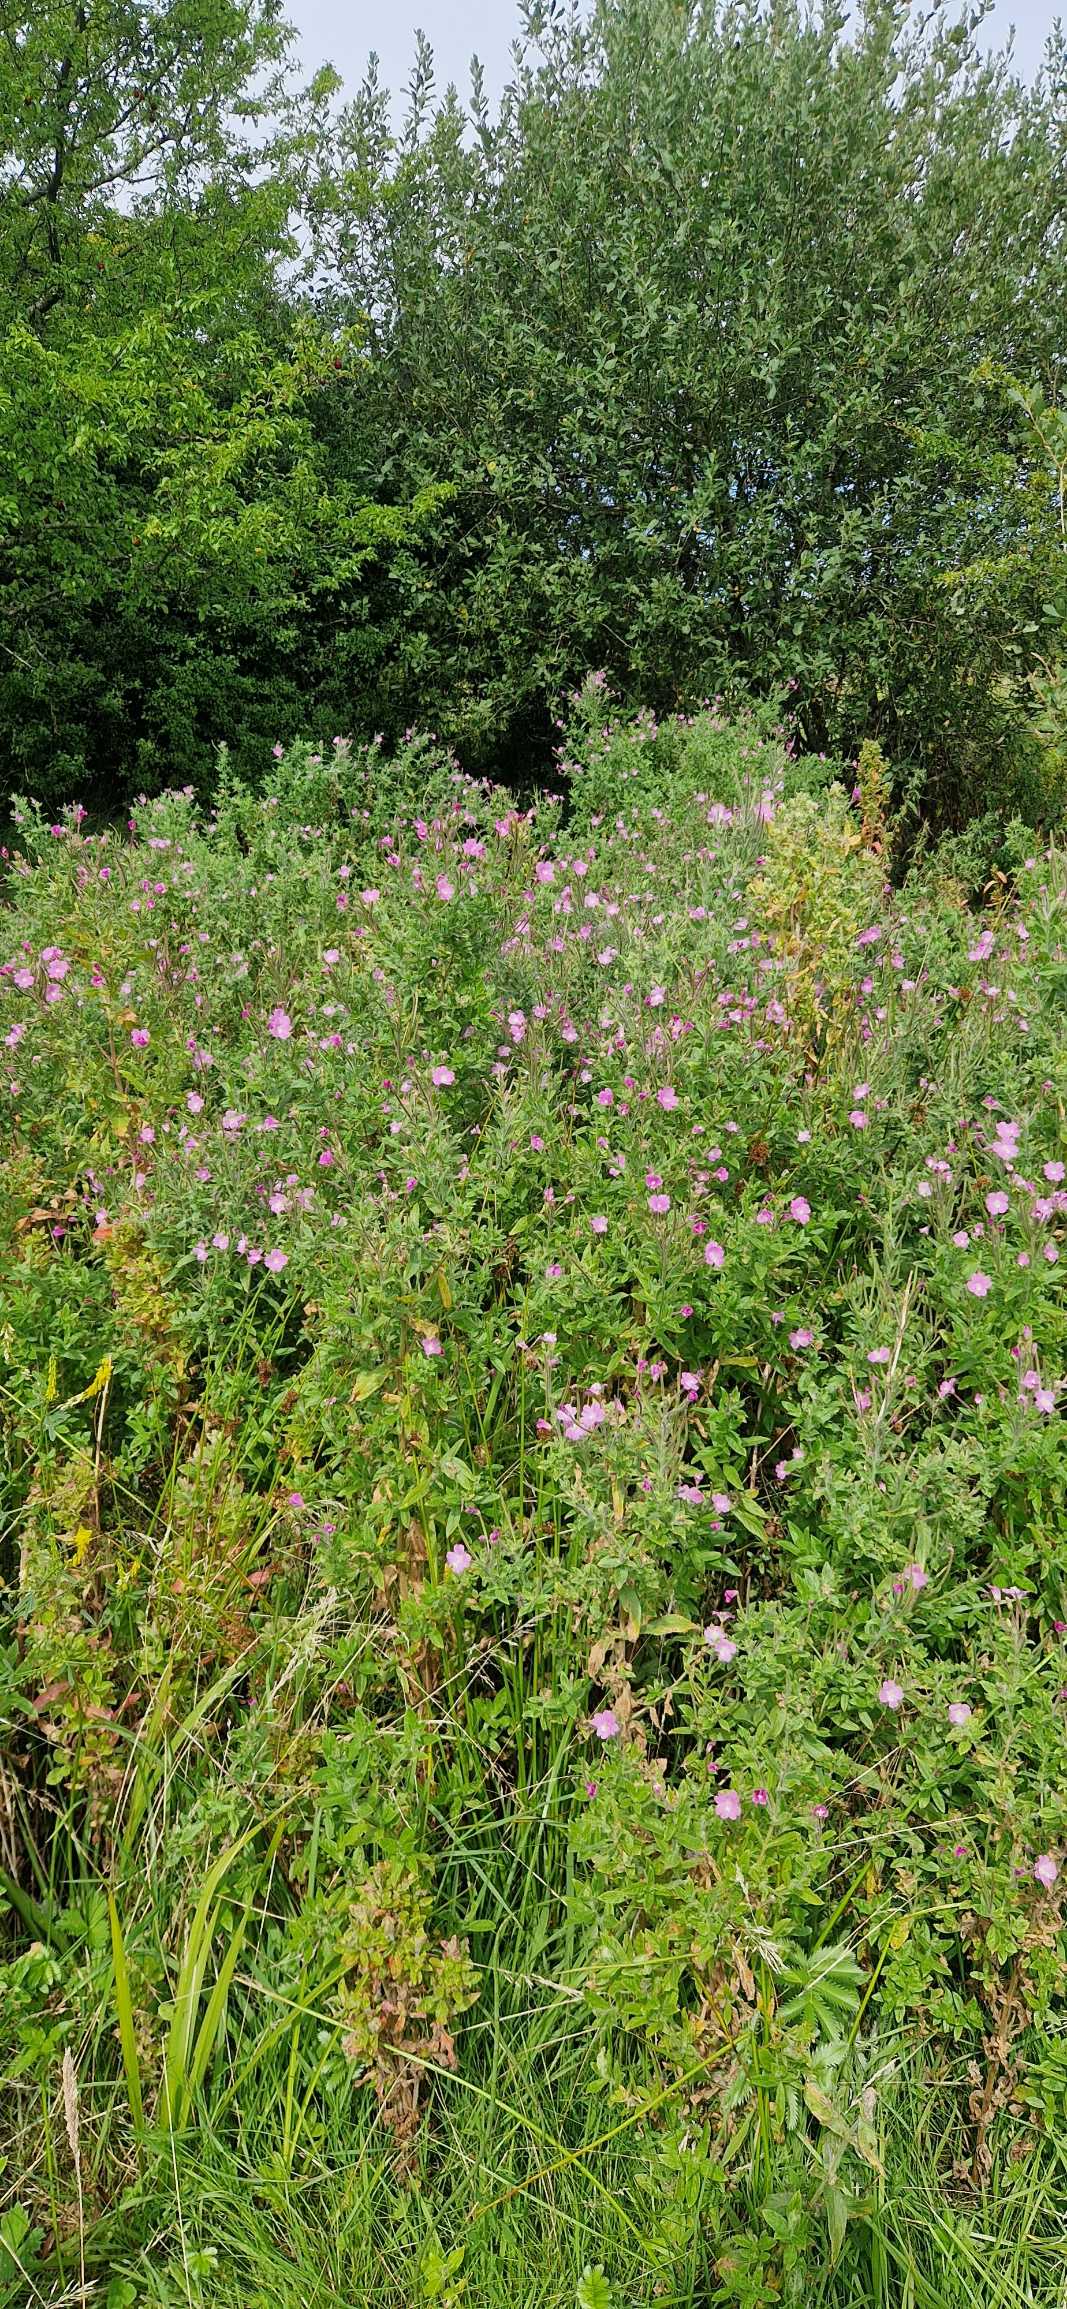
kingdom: Plantae
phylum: Tracheophyta
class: Magnoliopsida
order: Myrtales
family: Onagraceae
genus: Epilobium
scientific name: Epilobium hirsutum
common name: Lådden dueurt
